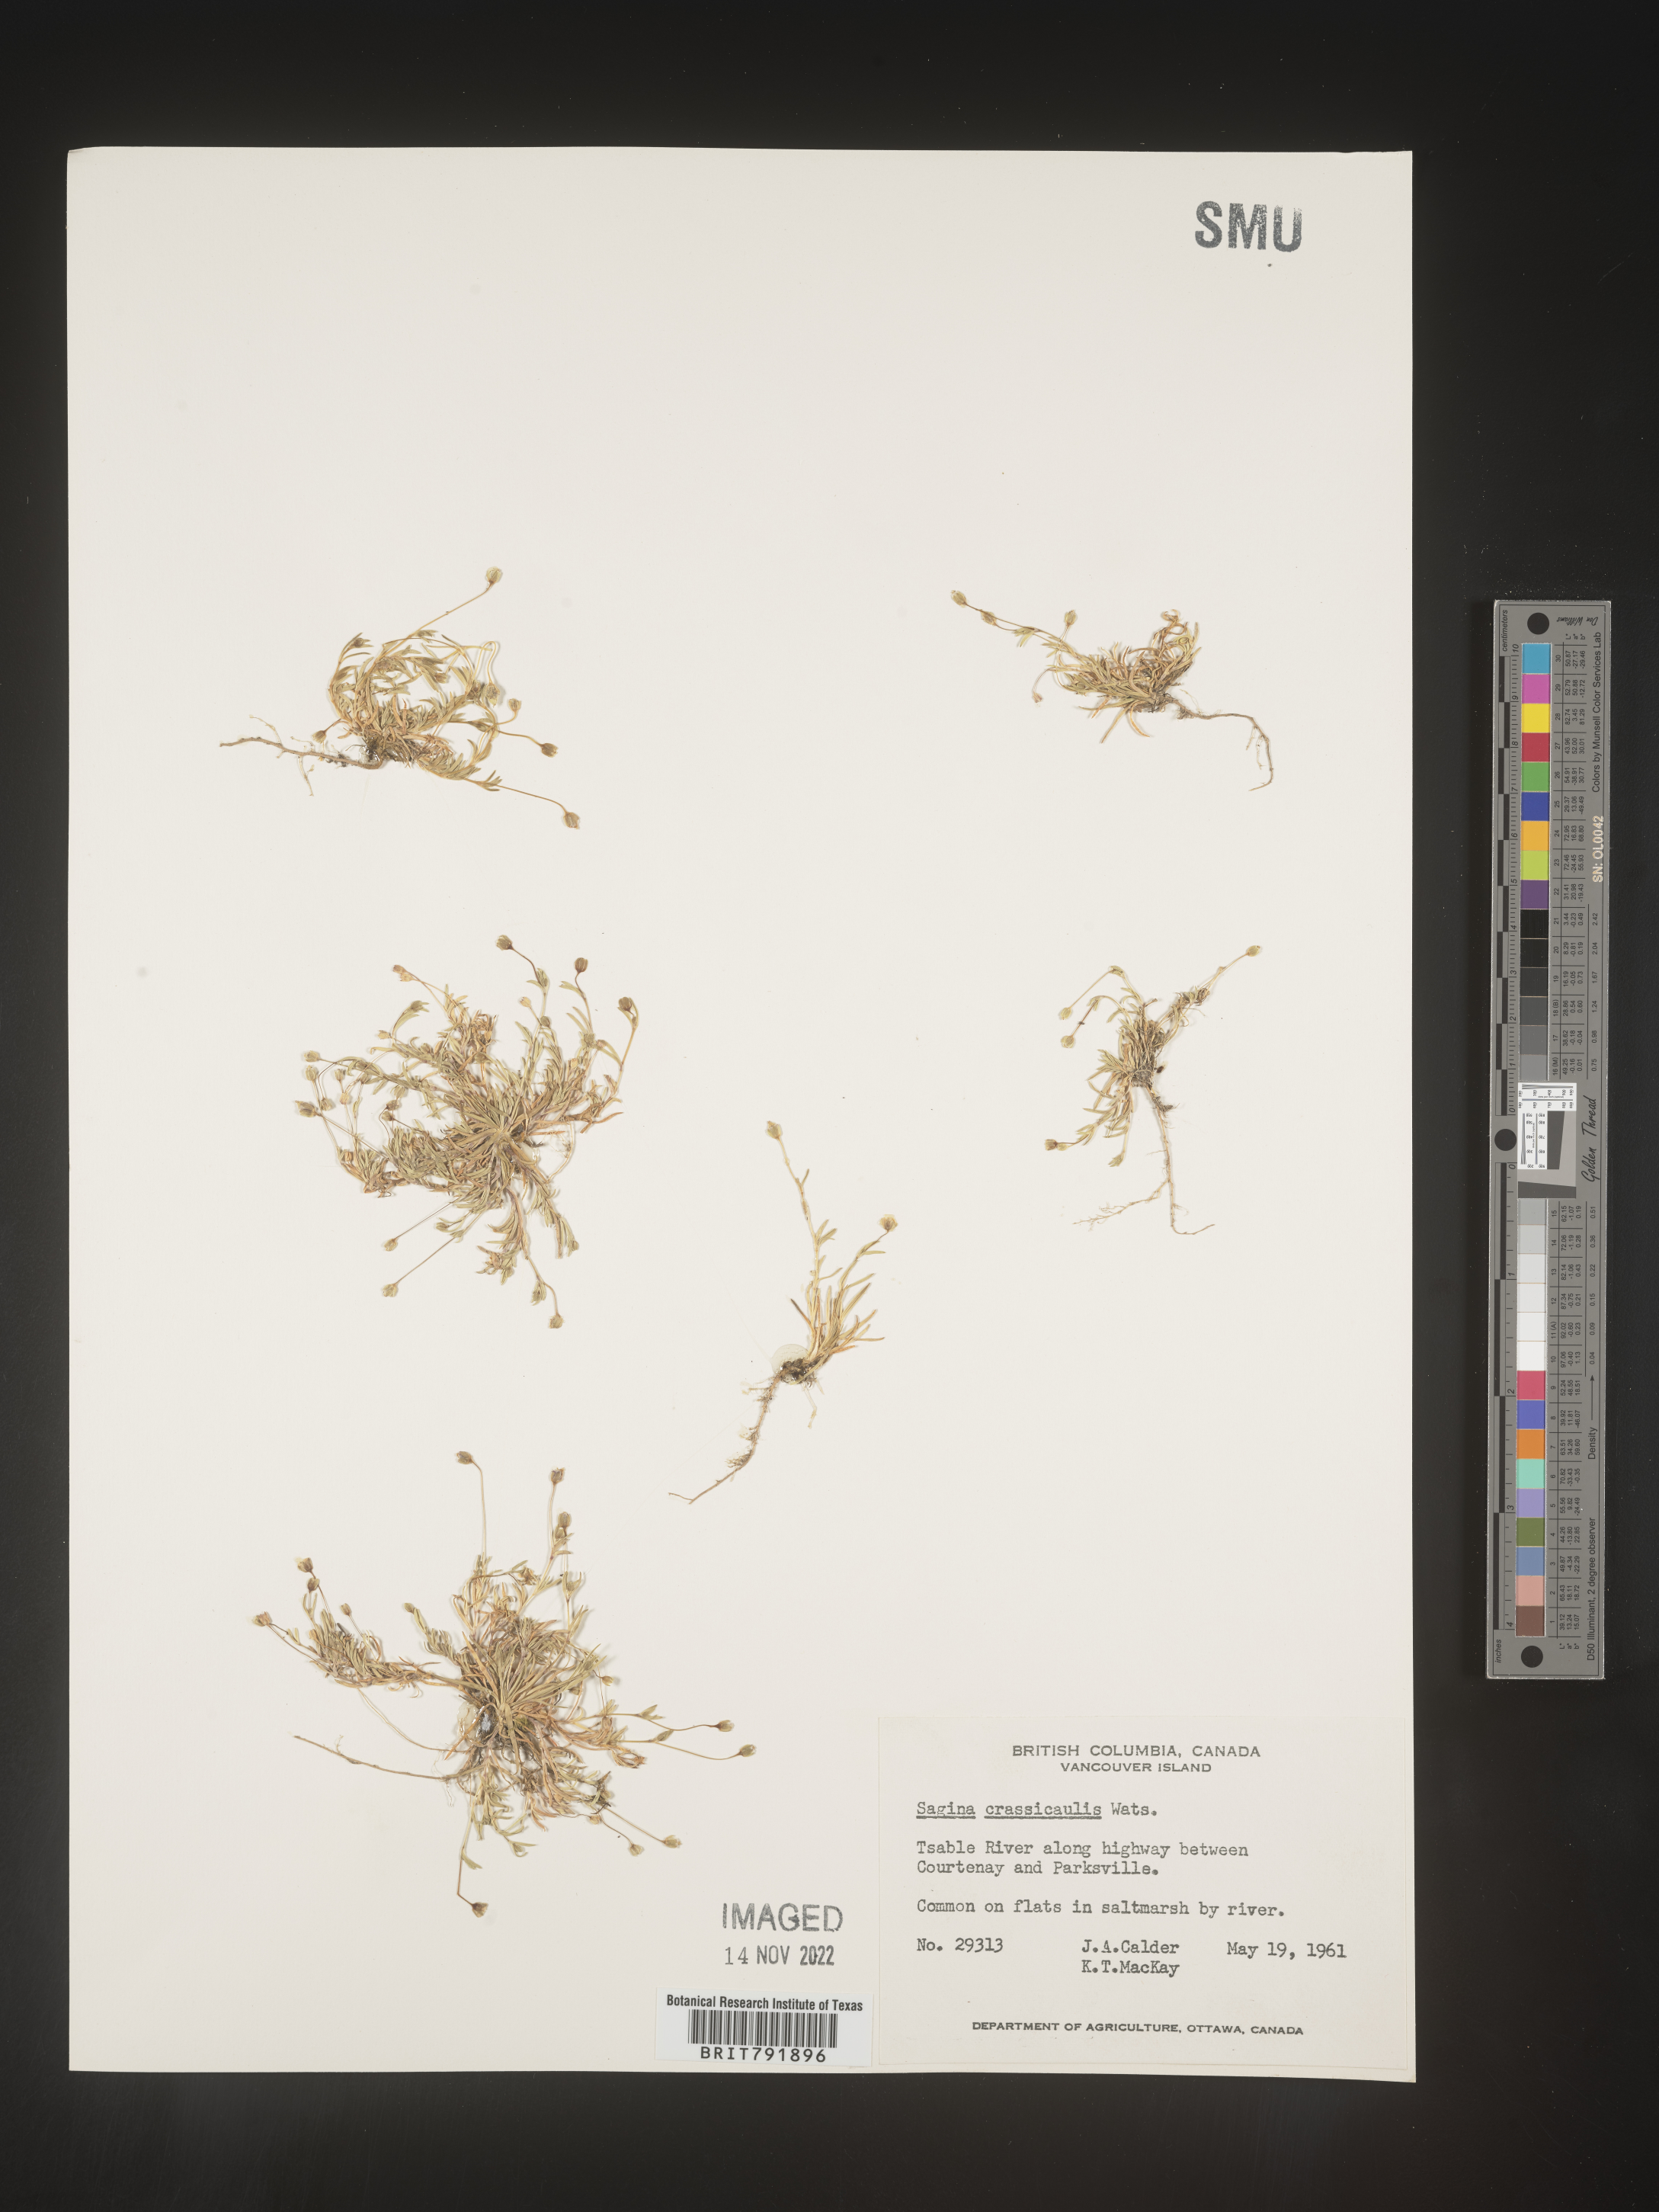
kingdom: Plantae
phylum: Tracheophyta
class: Magnoliopsida
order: Caryophyllales
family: Caryophyllaceae
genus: Sagina
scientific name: Sagina
